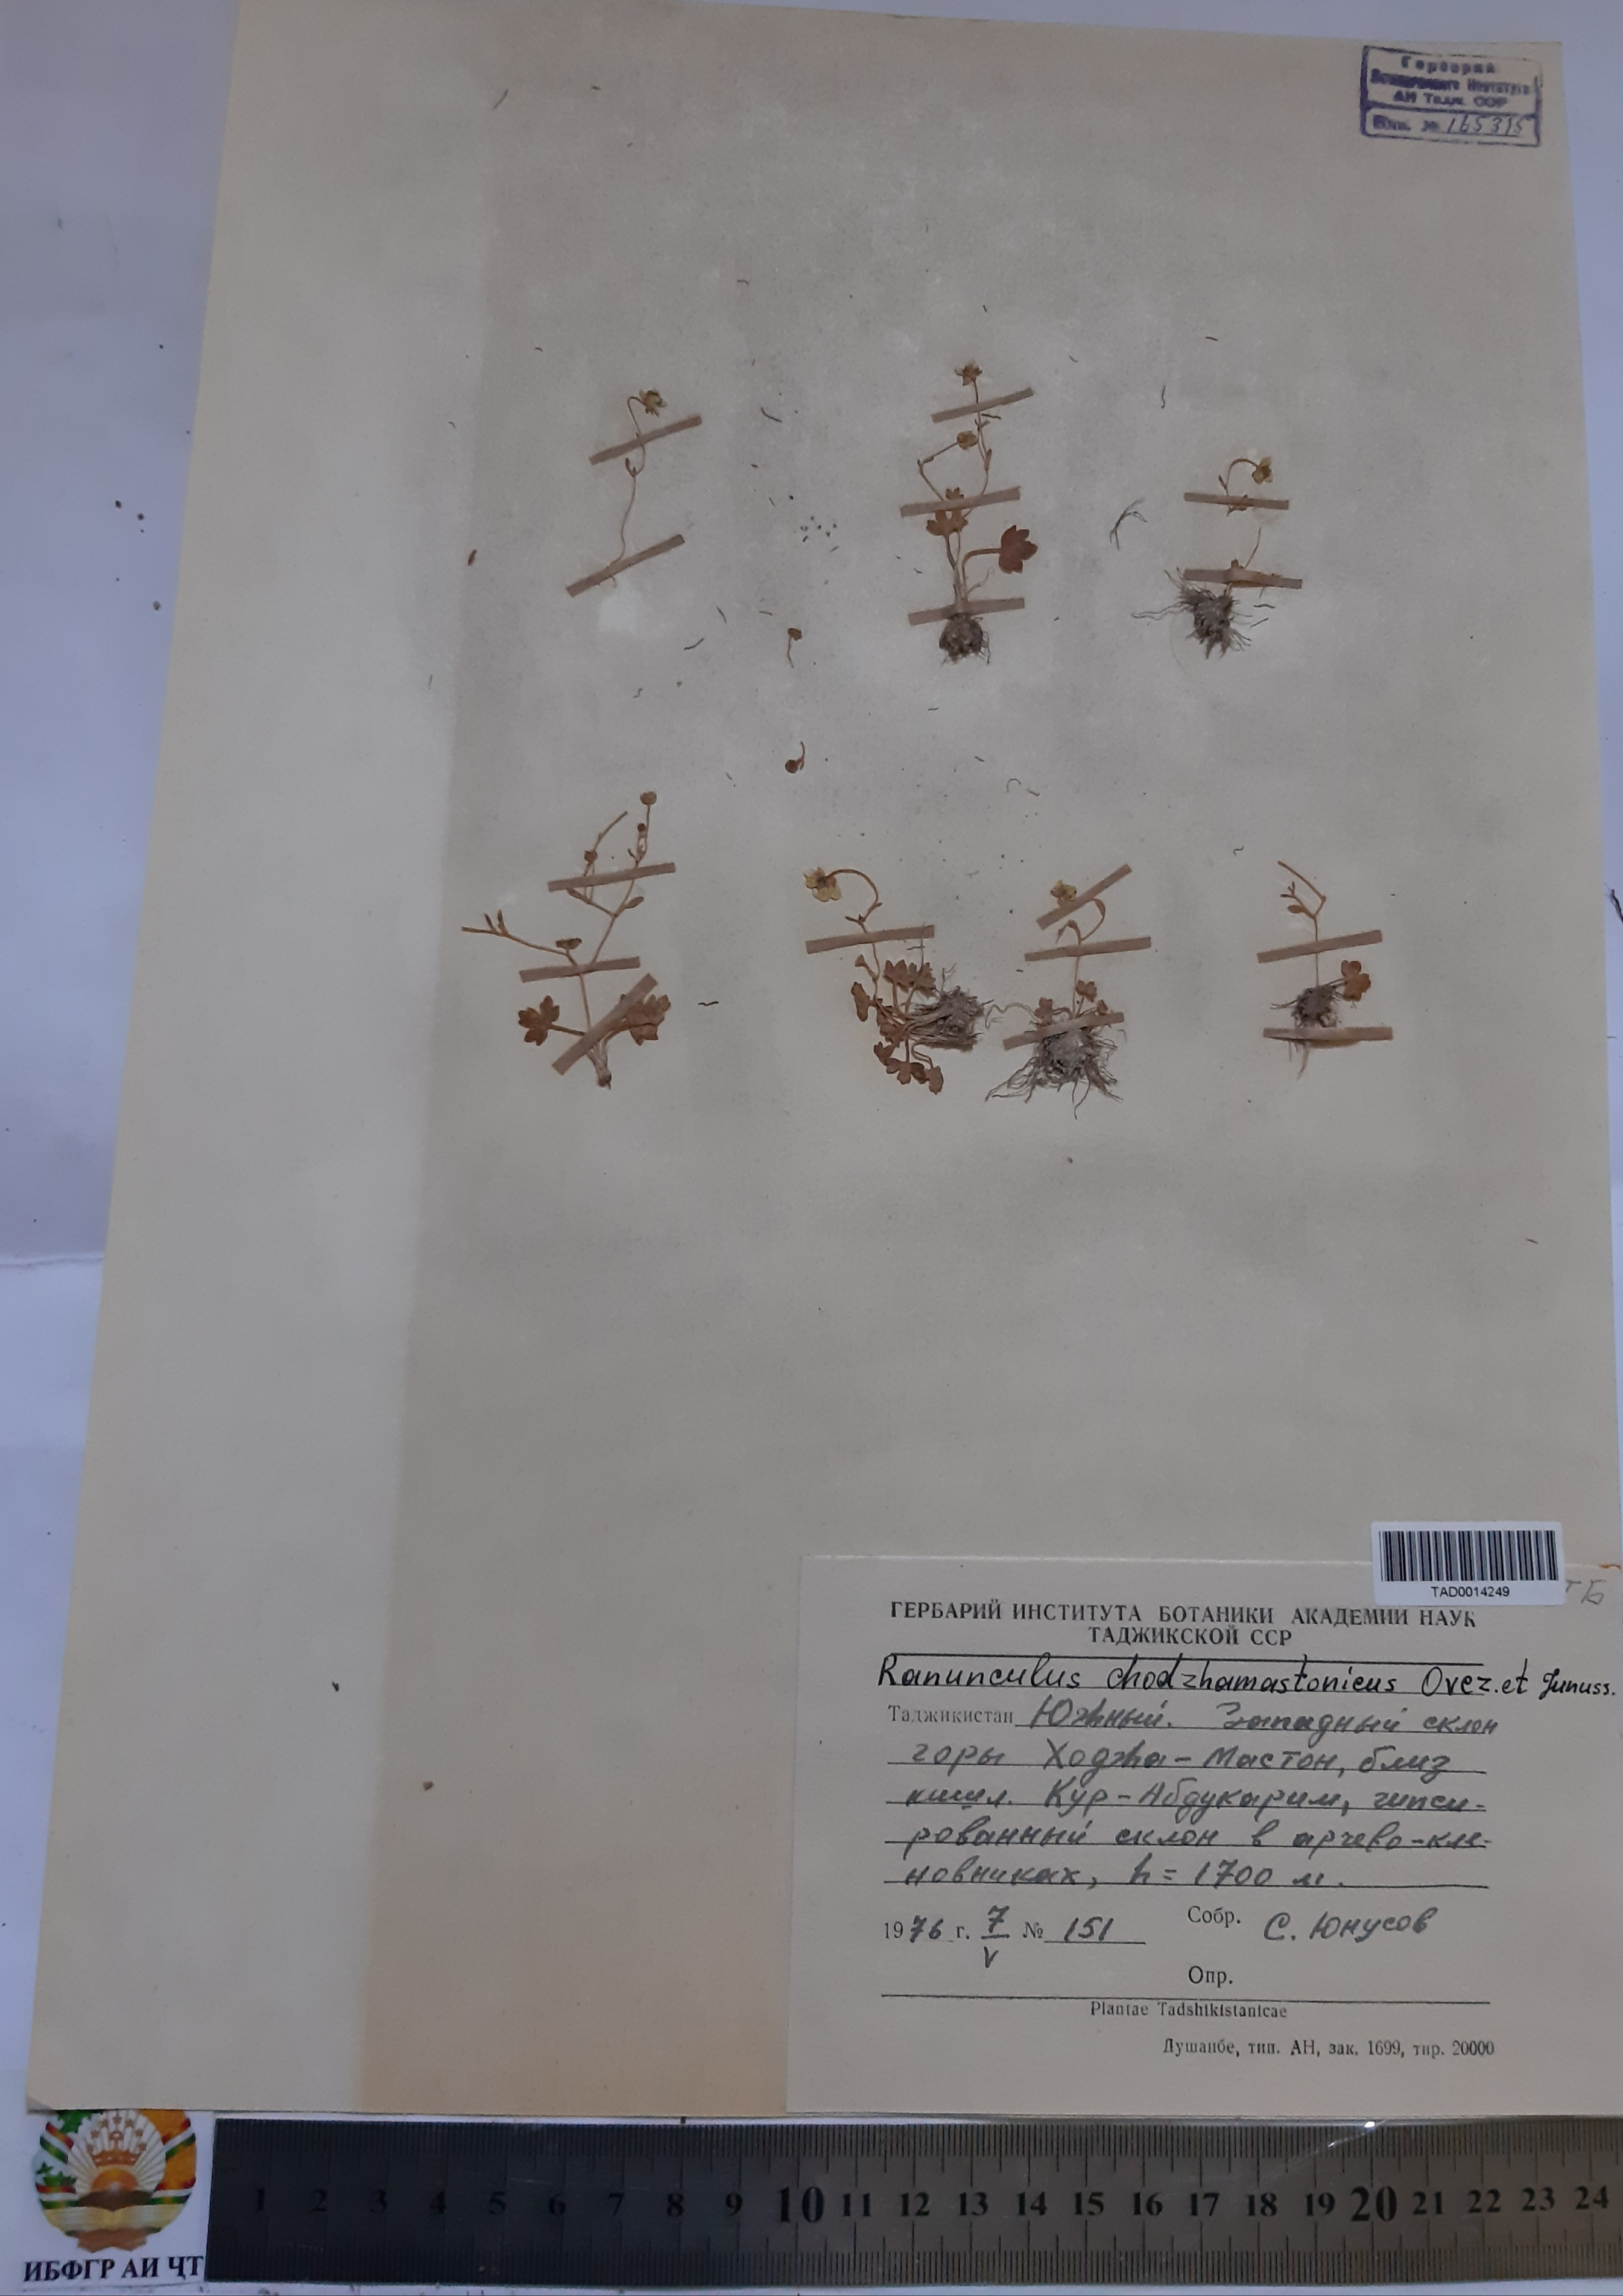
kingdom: Plantae
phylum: Tracheophyta
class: Magnoliopsida
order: Ranunculales
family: Ranunculaceae
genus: Ranunculus
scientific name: Ranunculus chodzhamastonicus
